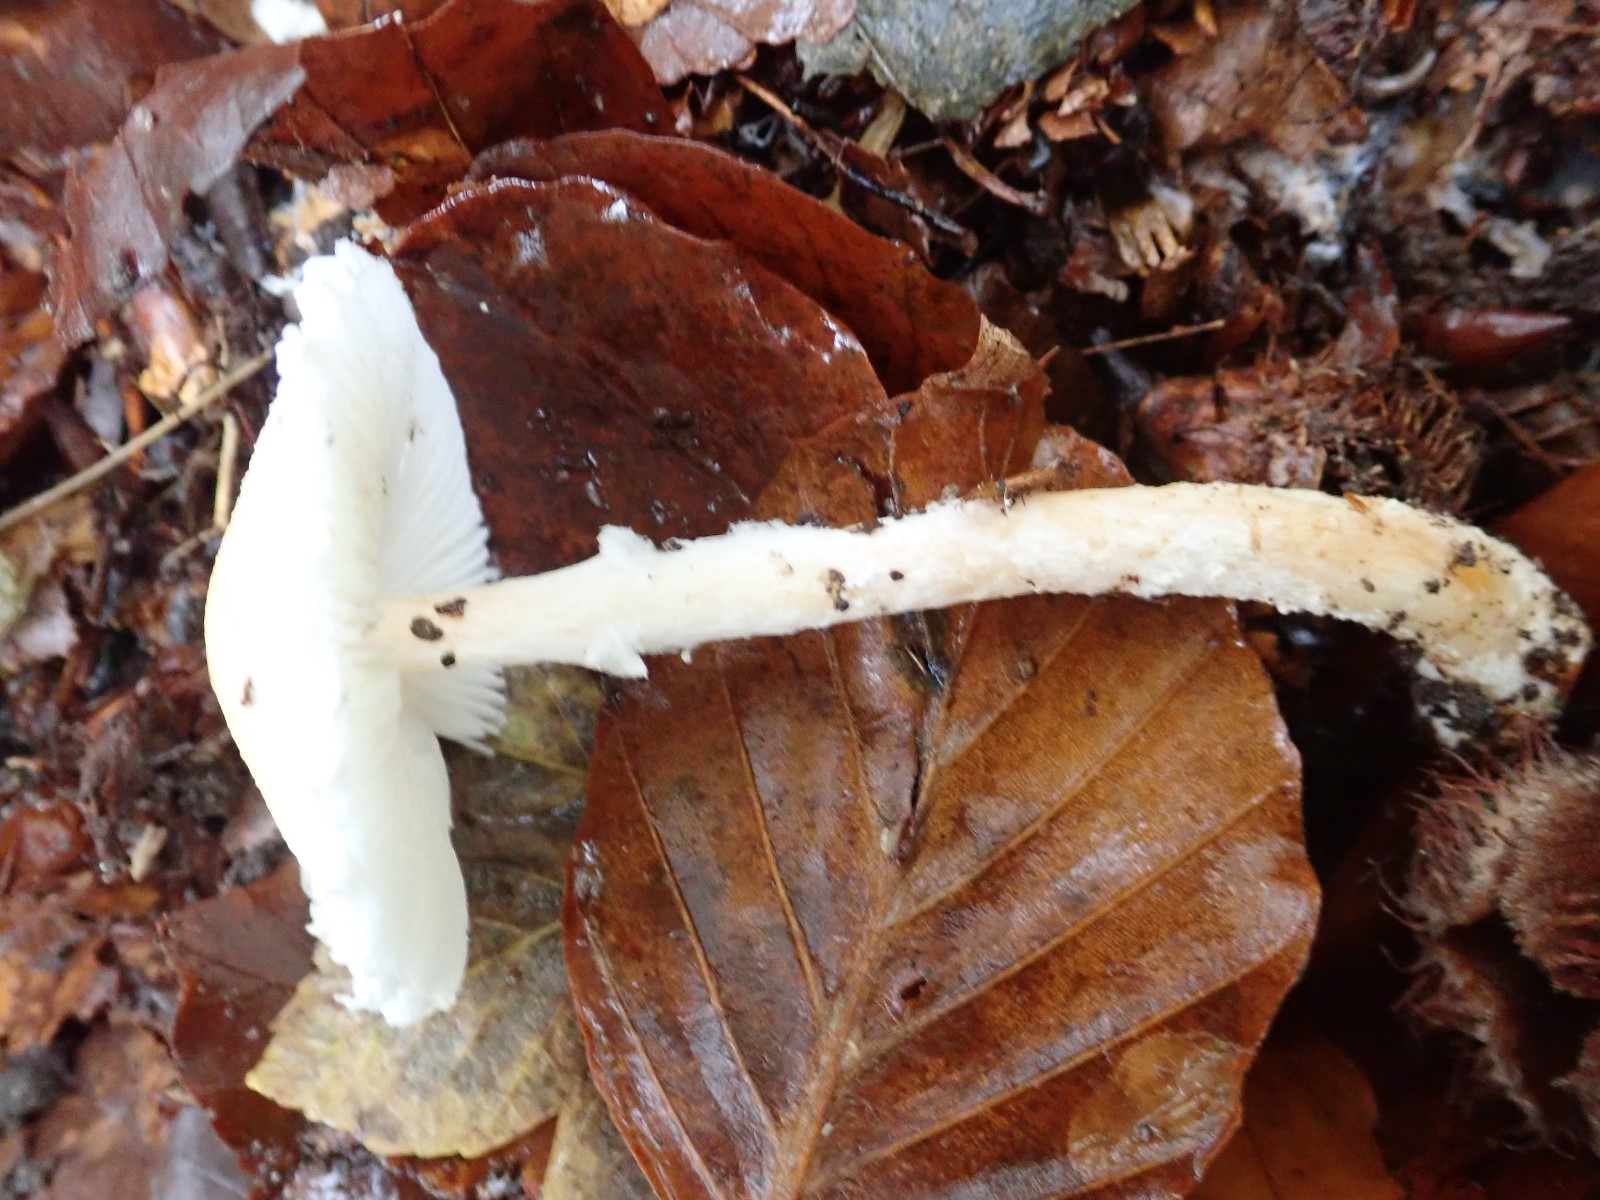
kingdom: Fungi
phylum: Basidiomycota
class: Agaricomycetes
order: Agaricales
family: Agaricaceae
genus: Lepiota
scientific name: Lepiota clypeolaria
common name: flosset parasolhat
